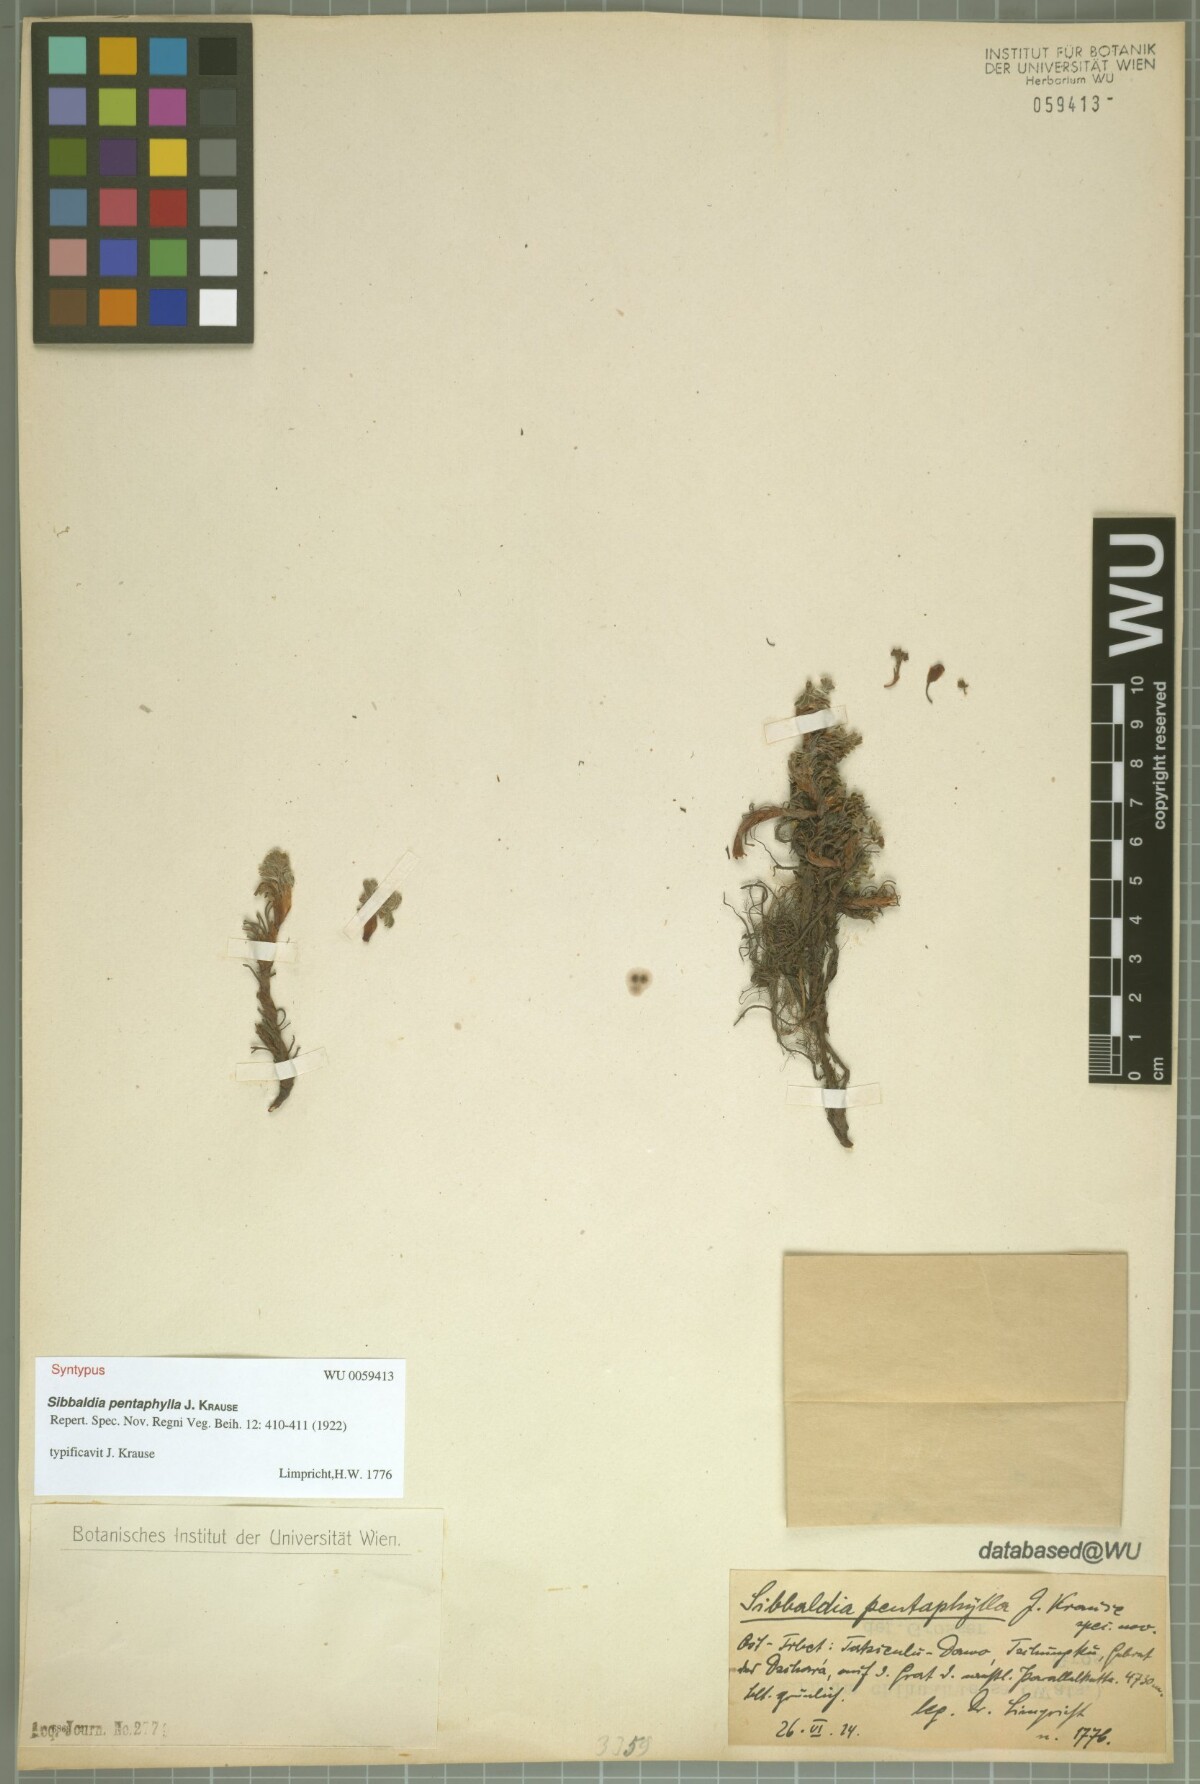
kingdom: Plantae
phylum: Tracheophyta
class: Magnoliopsida
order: Rosales
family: Rosaceae
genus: Potentilla
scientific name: Potentilla clandestina
